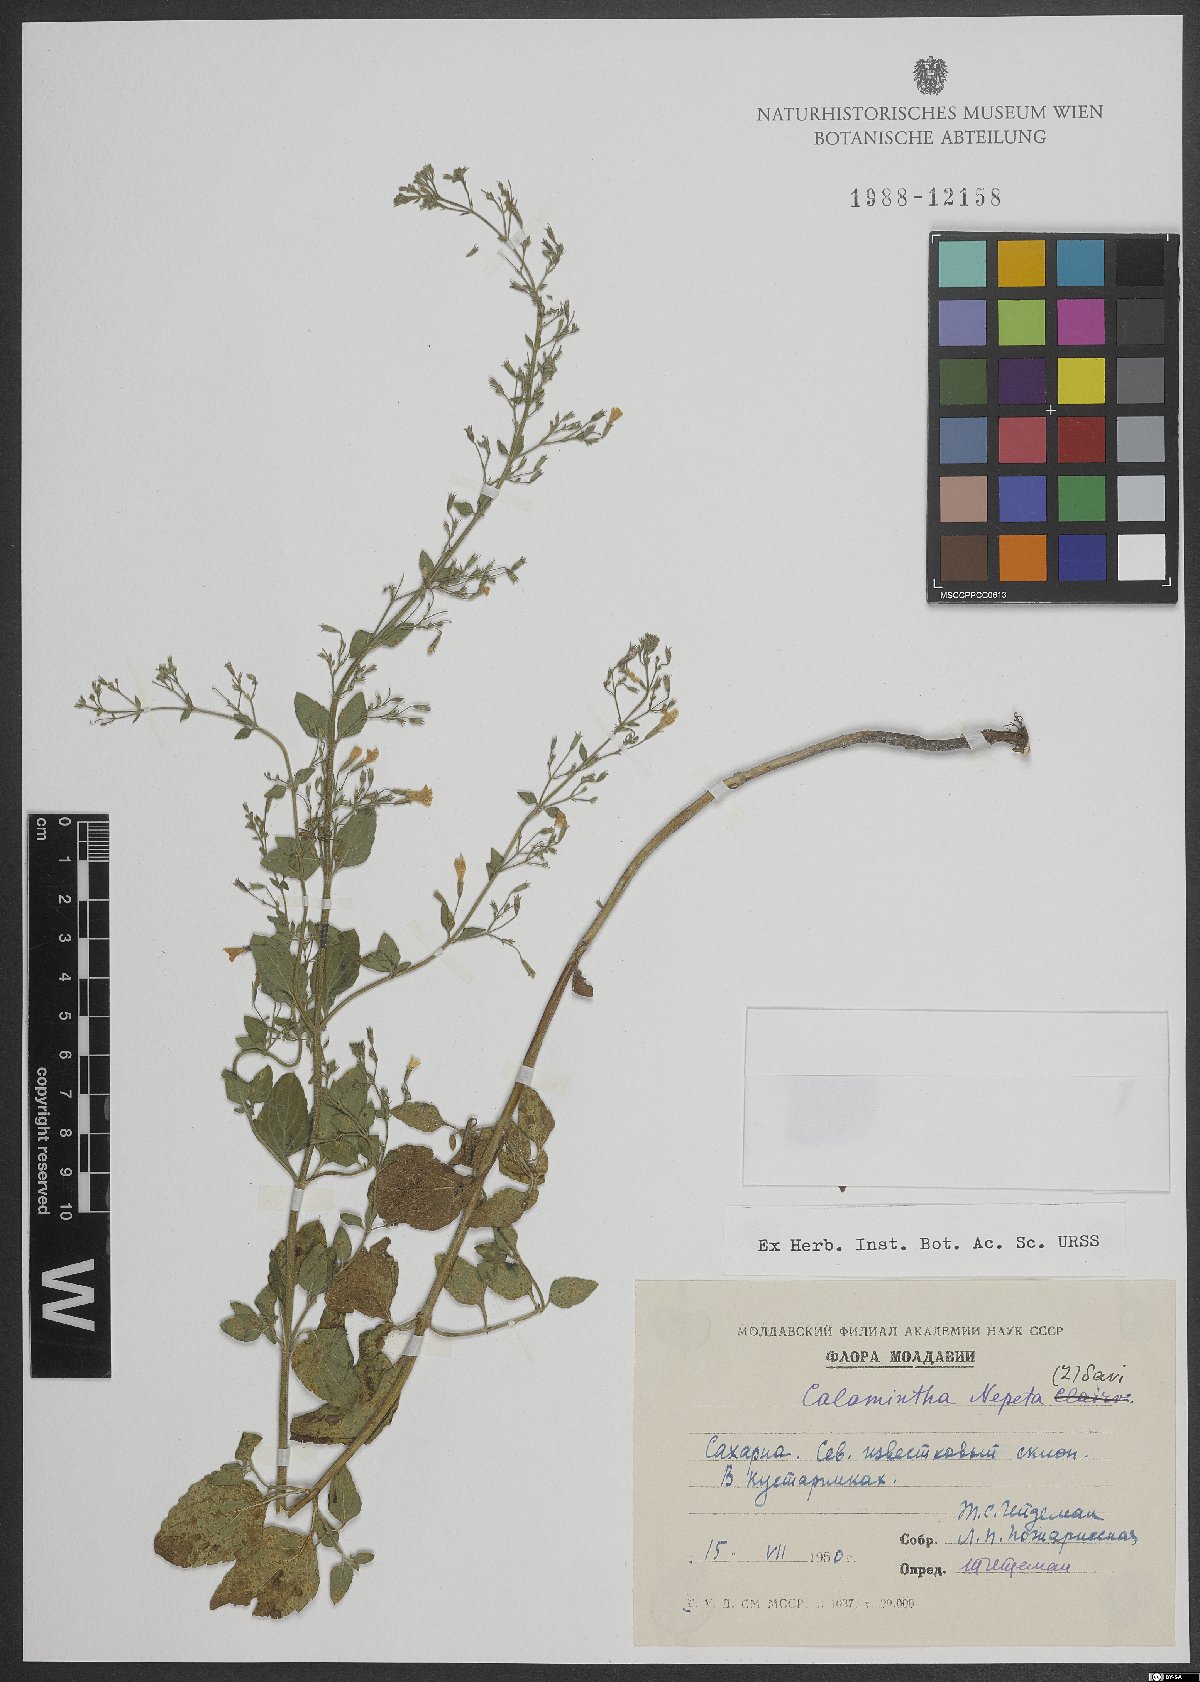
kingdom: Plantae
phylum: Tracheophyta
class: Magnoliopsida
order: Lamiales
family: Lamiaceae
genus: Clinopodium
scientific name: Clinopodium nepeta
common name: Lesser calamint
